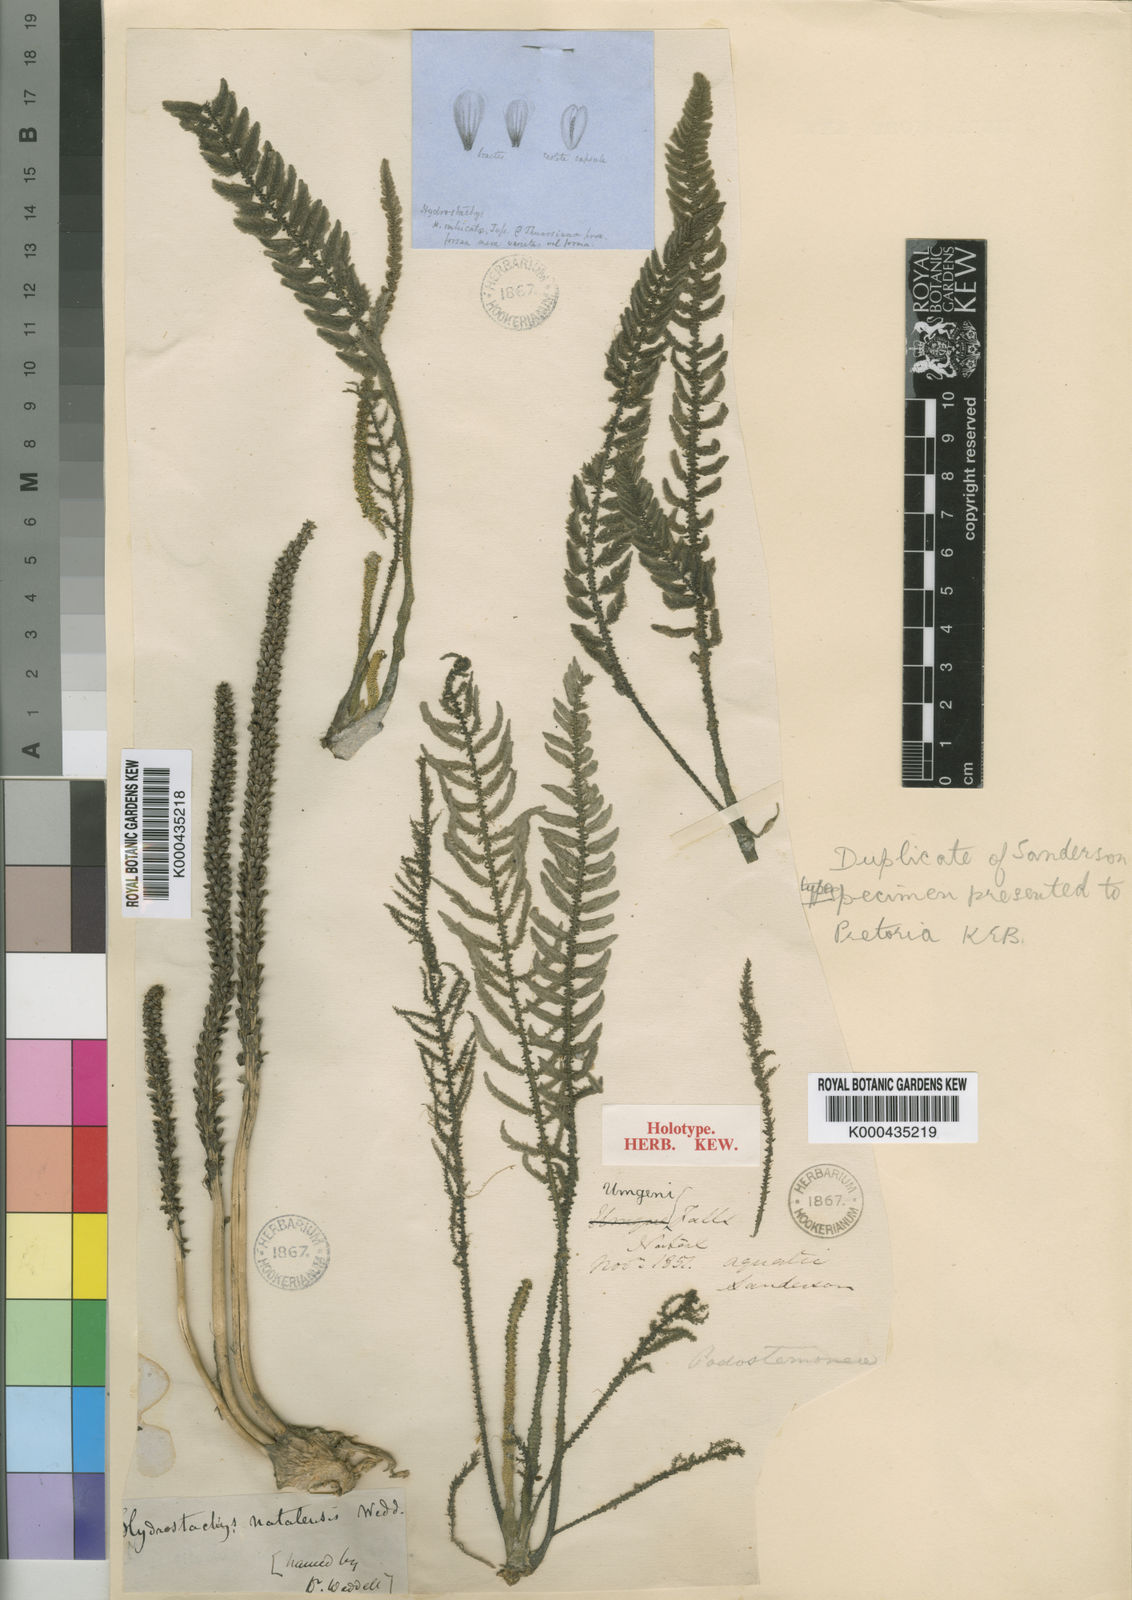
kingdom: Plantae
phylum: Tracheophyta
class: Magnoliopsida
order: Cornales
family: Hydrostachyaceae
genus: Hydrostachys
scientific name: Hydrostachys
